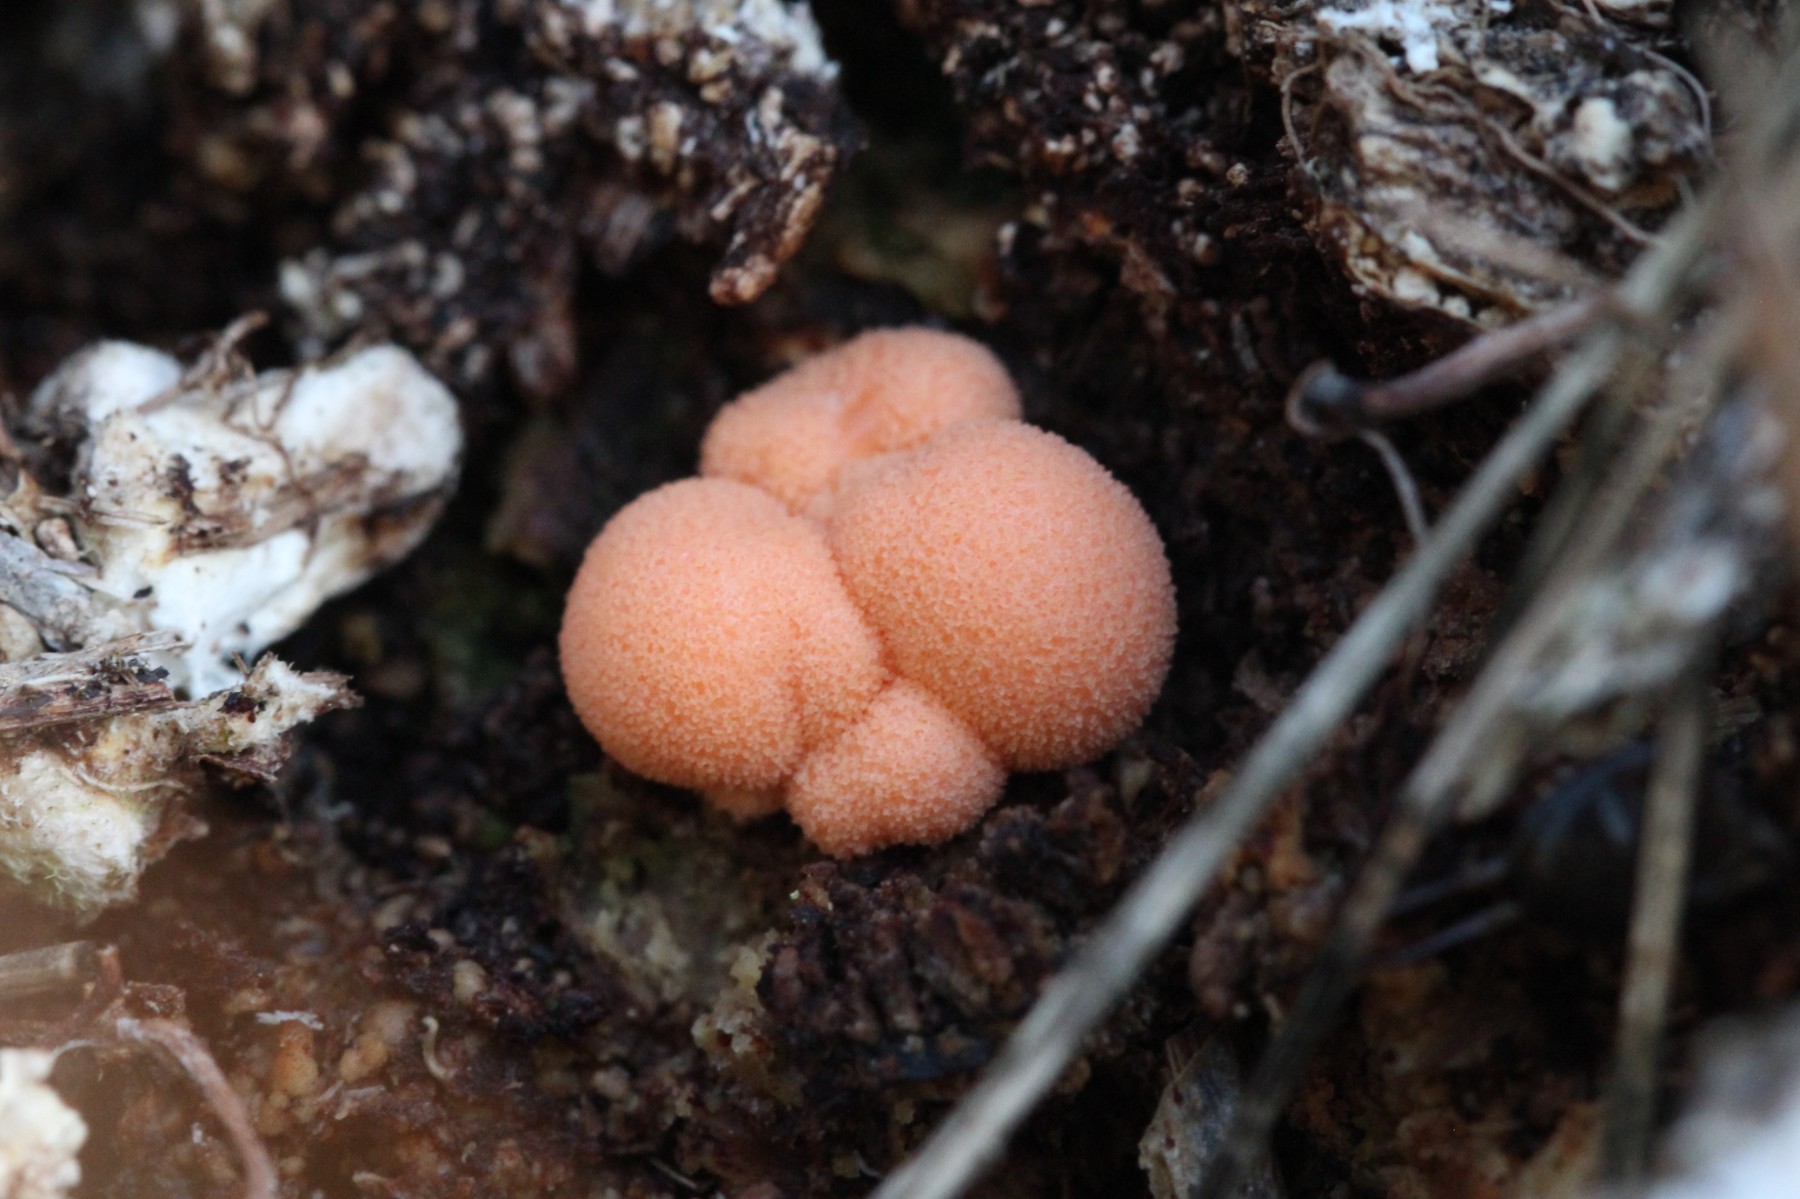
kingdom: Protozoa
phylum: Mycetozoa
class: Myxomycetes
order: Cribrariales
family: Tubiferaceae
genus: Lycogala
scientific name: Lycogala epidendrum
